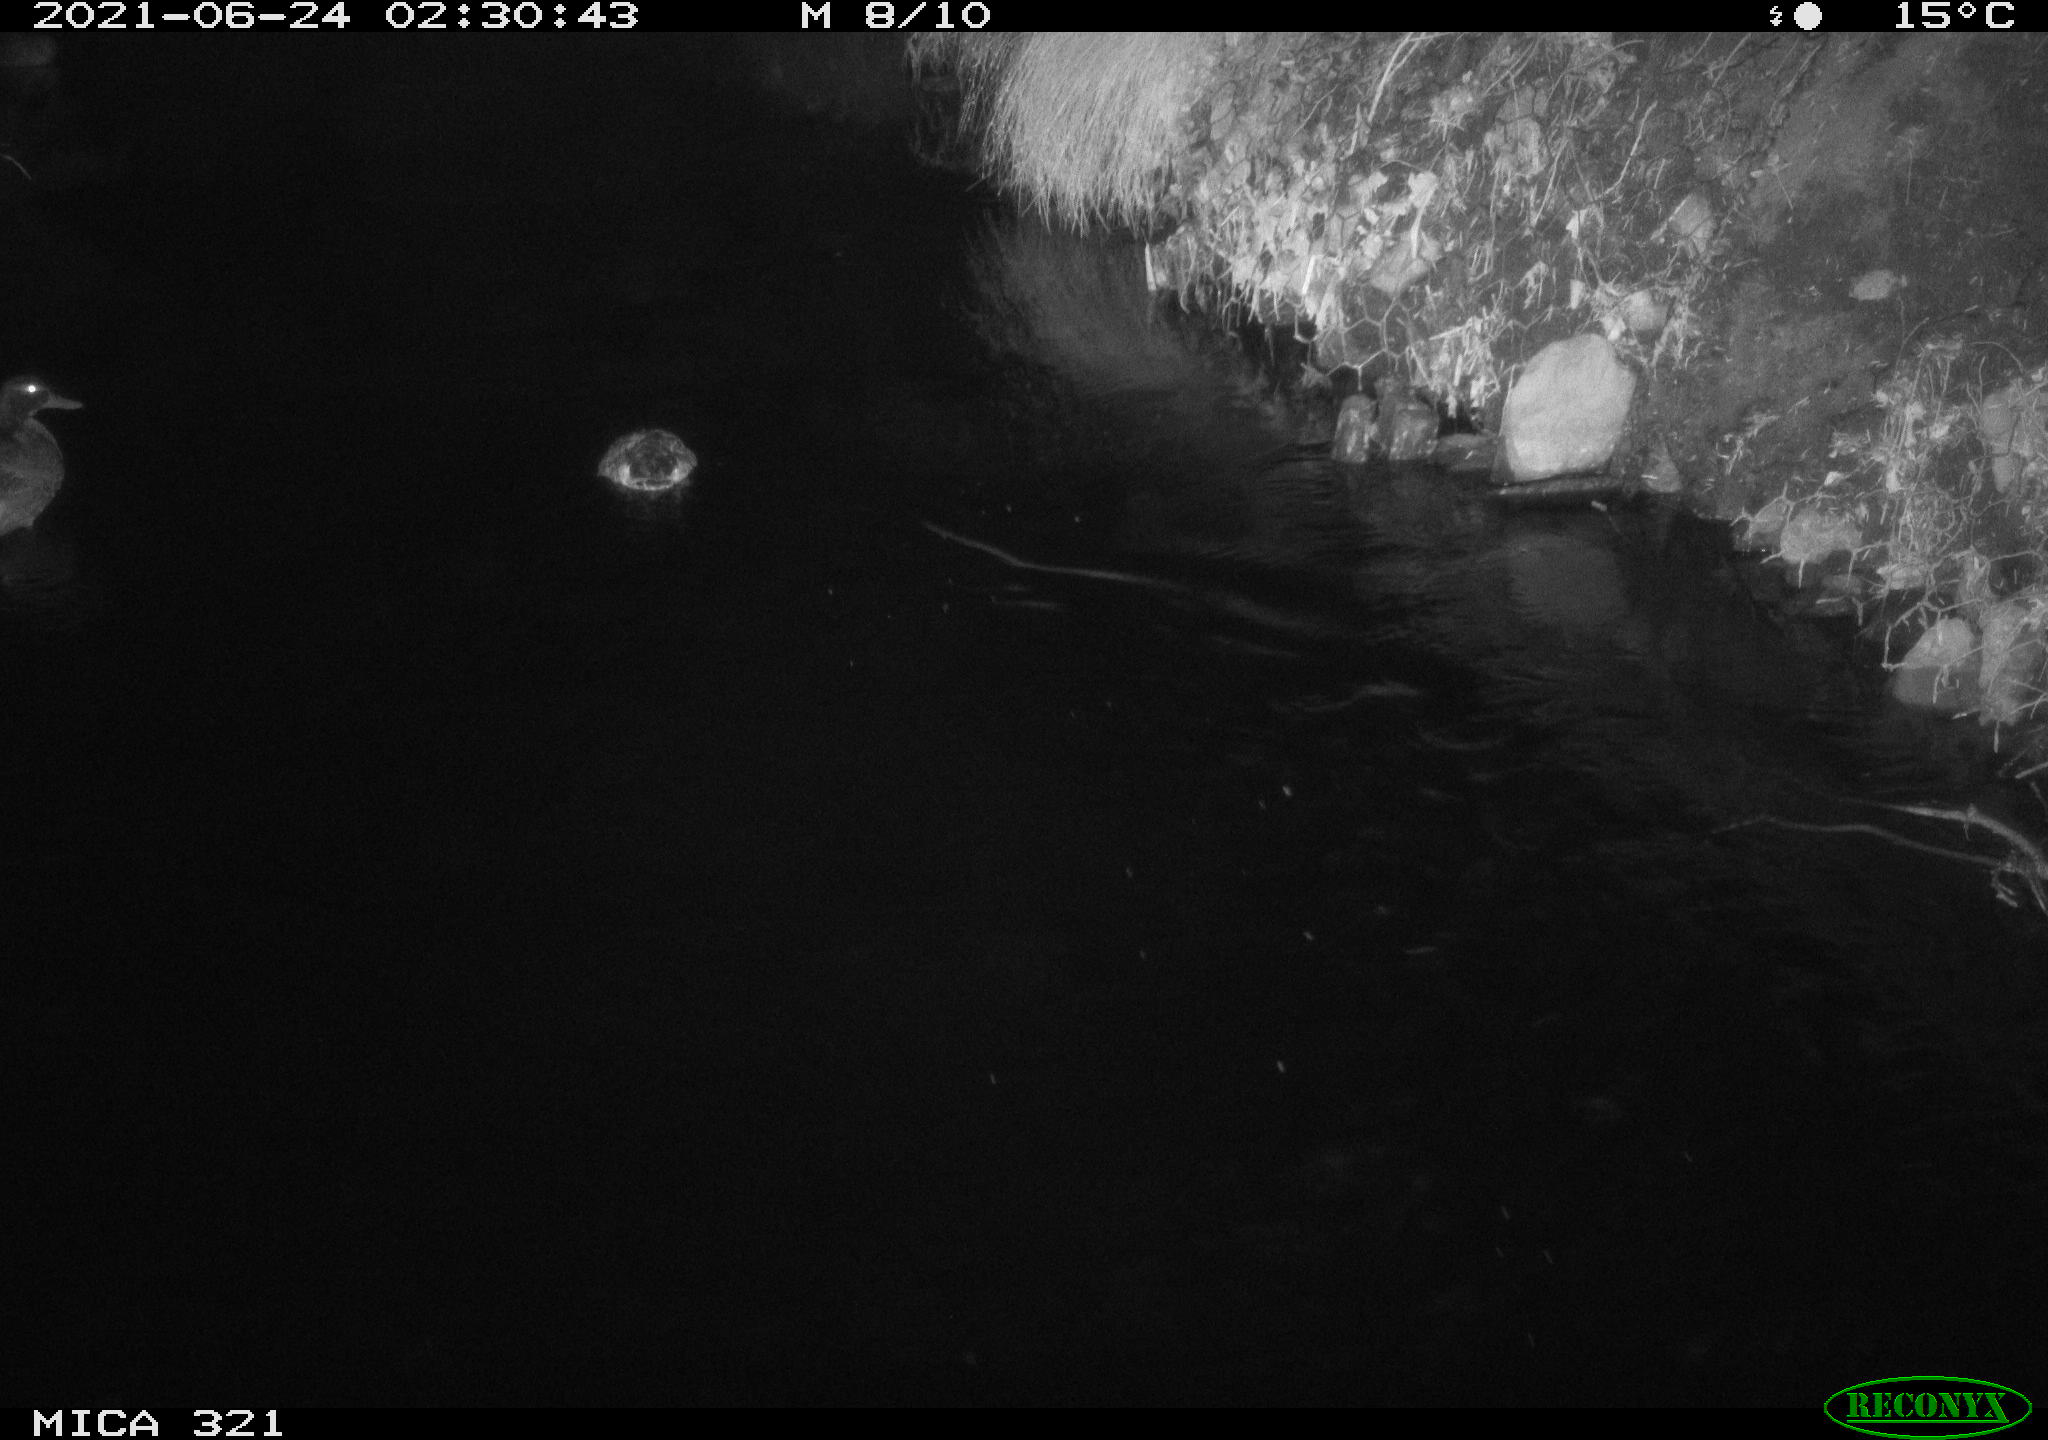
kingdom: Animalia
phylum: Chordata
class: Aves
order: Anseriformes
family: Anatidae
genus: Anas
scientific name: Anas platyrhynchos
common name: Mallard
